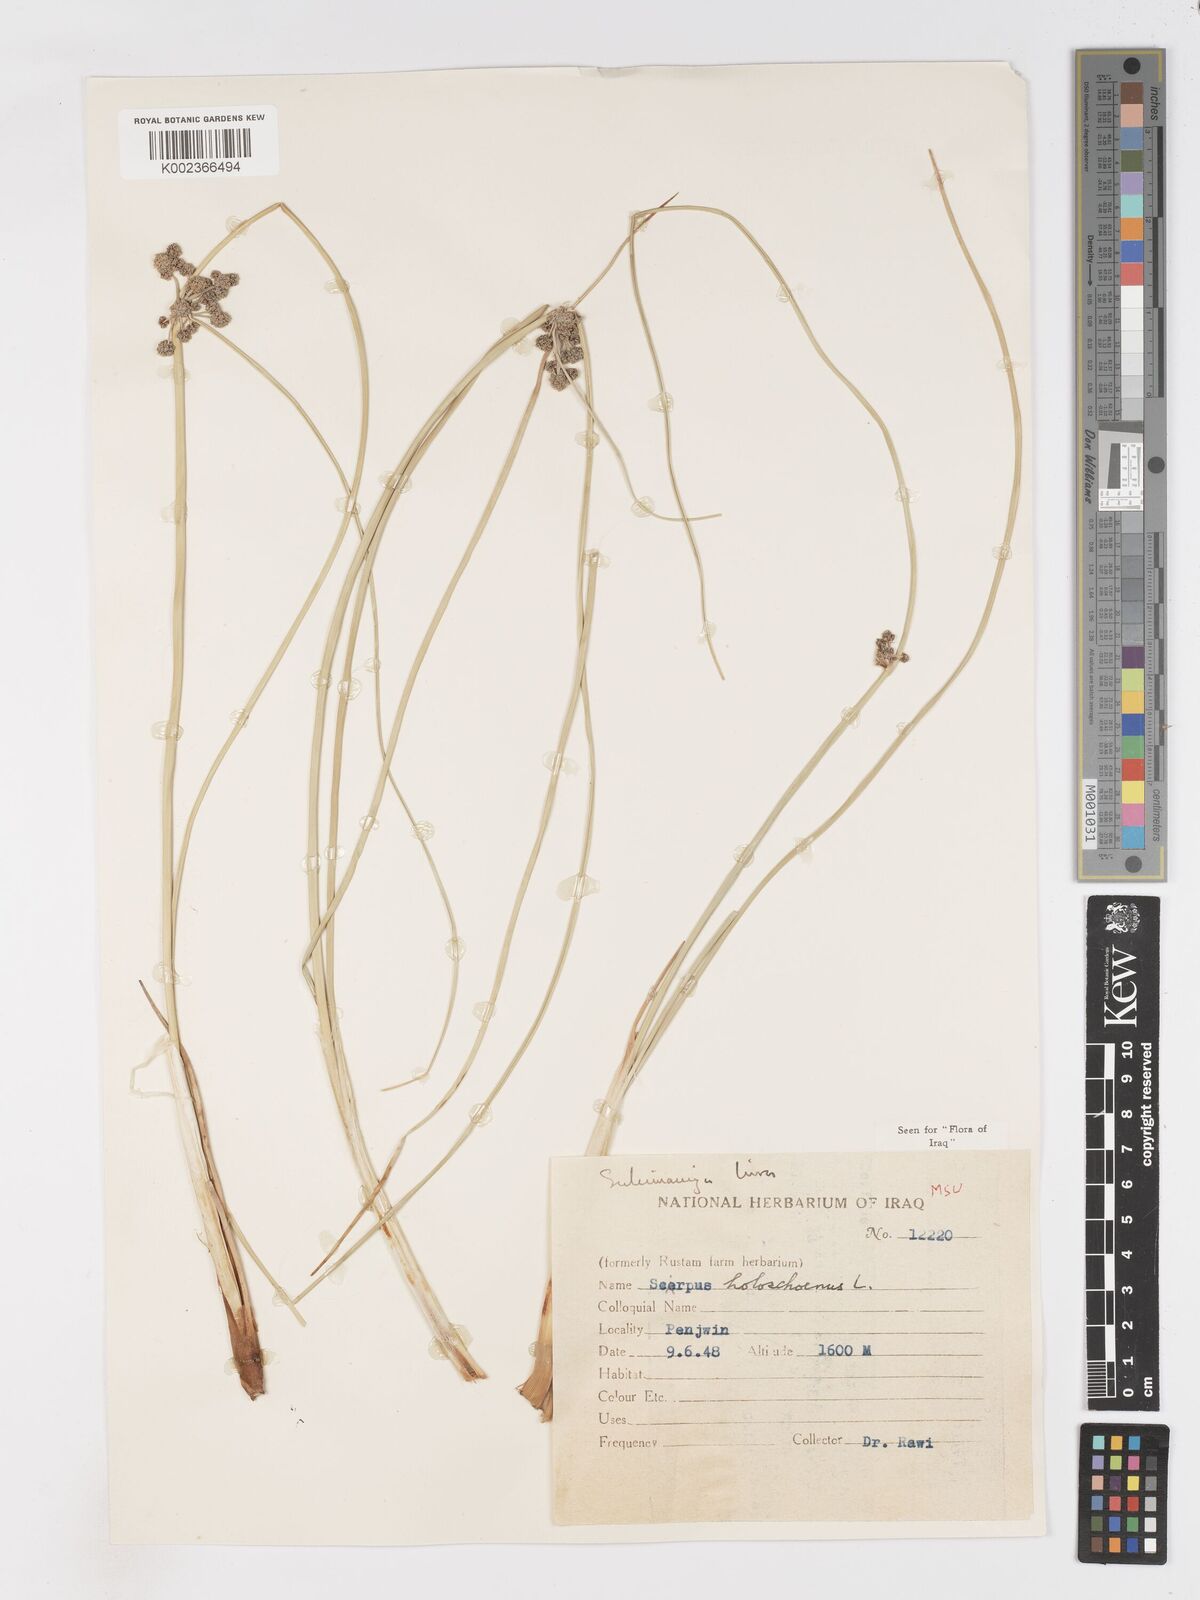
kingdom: Plantae
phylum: Tracheophyta
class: Liliopsida
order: Poales
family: Cyperaceae
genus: Scirpoides
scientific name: Scirpoides holoschoenus
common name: Round-headed club-rush
